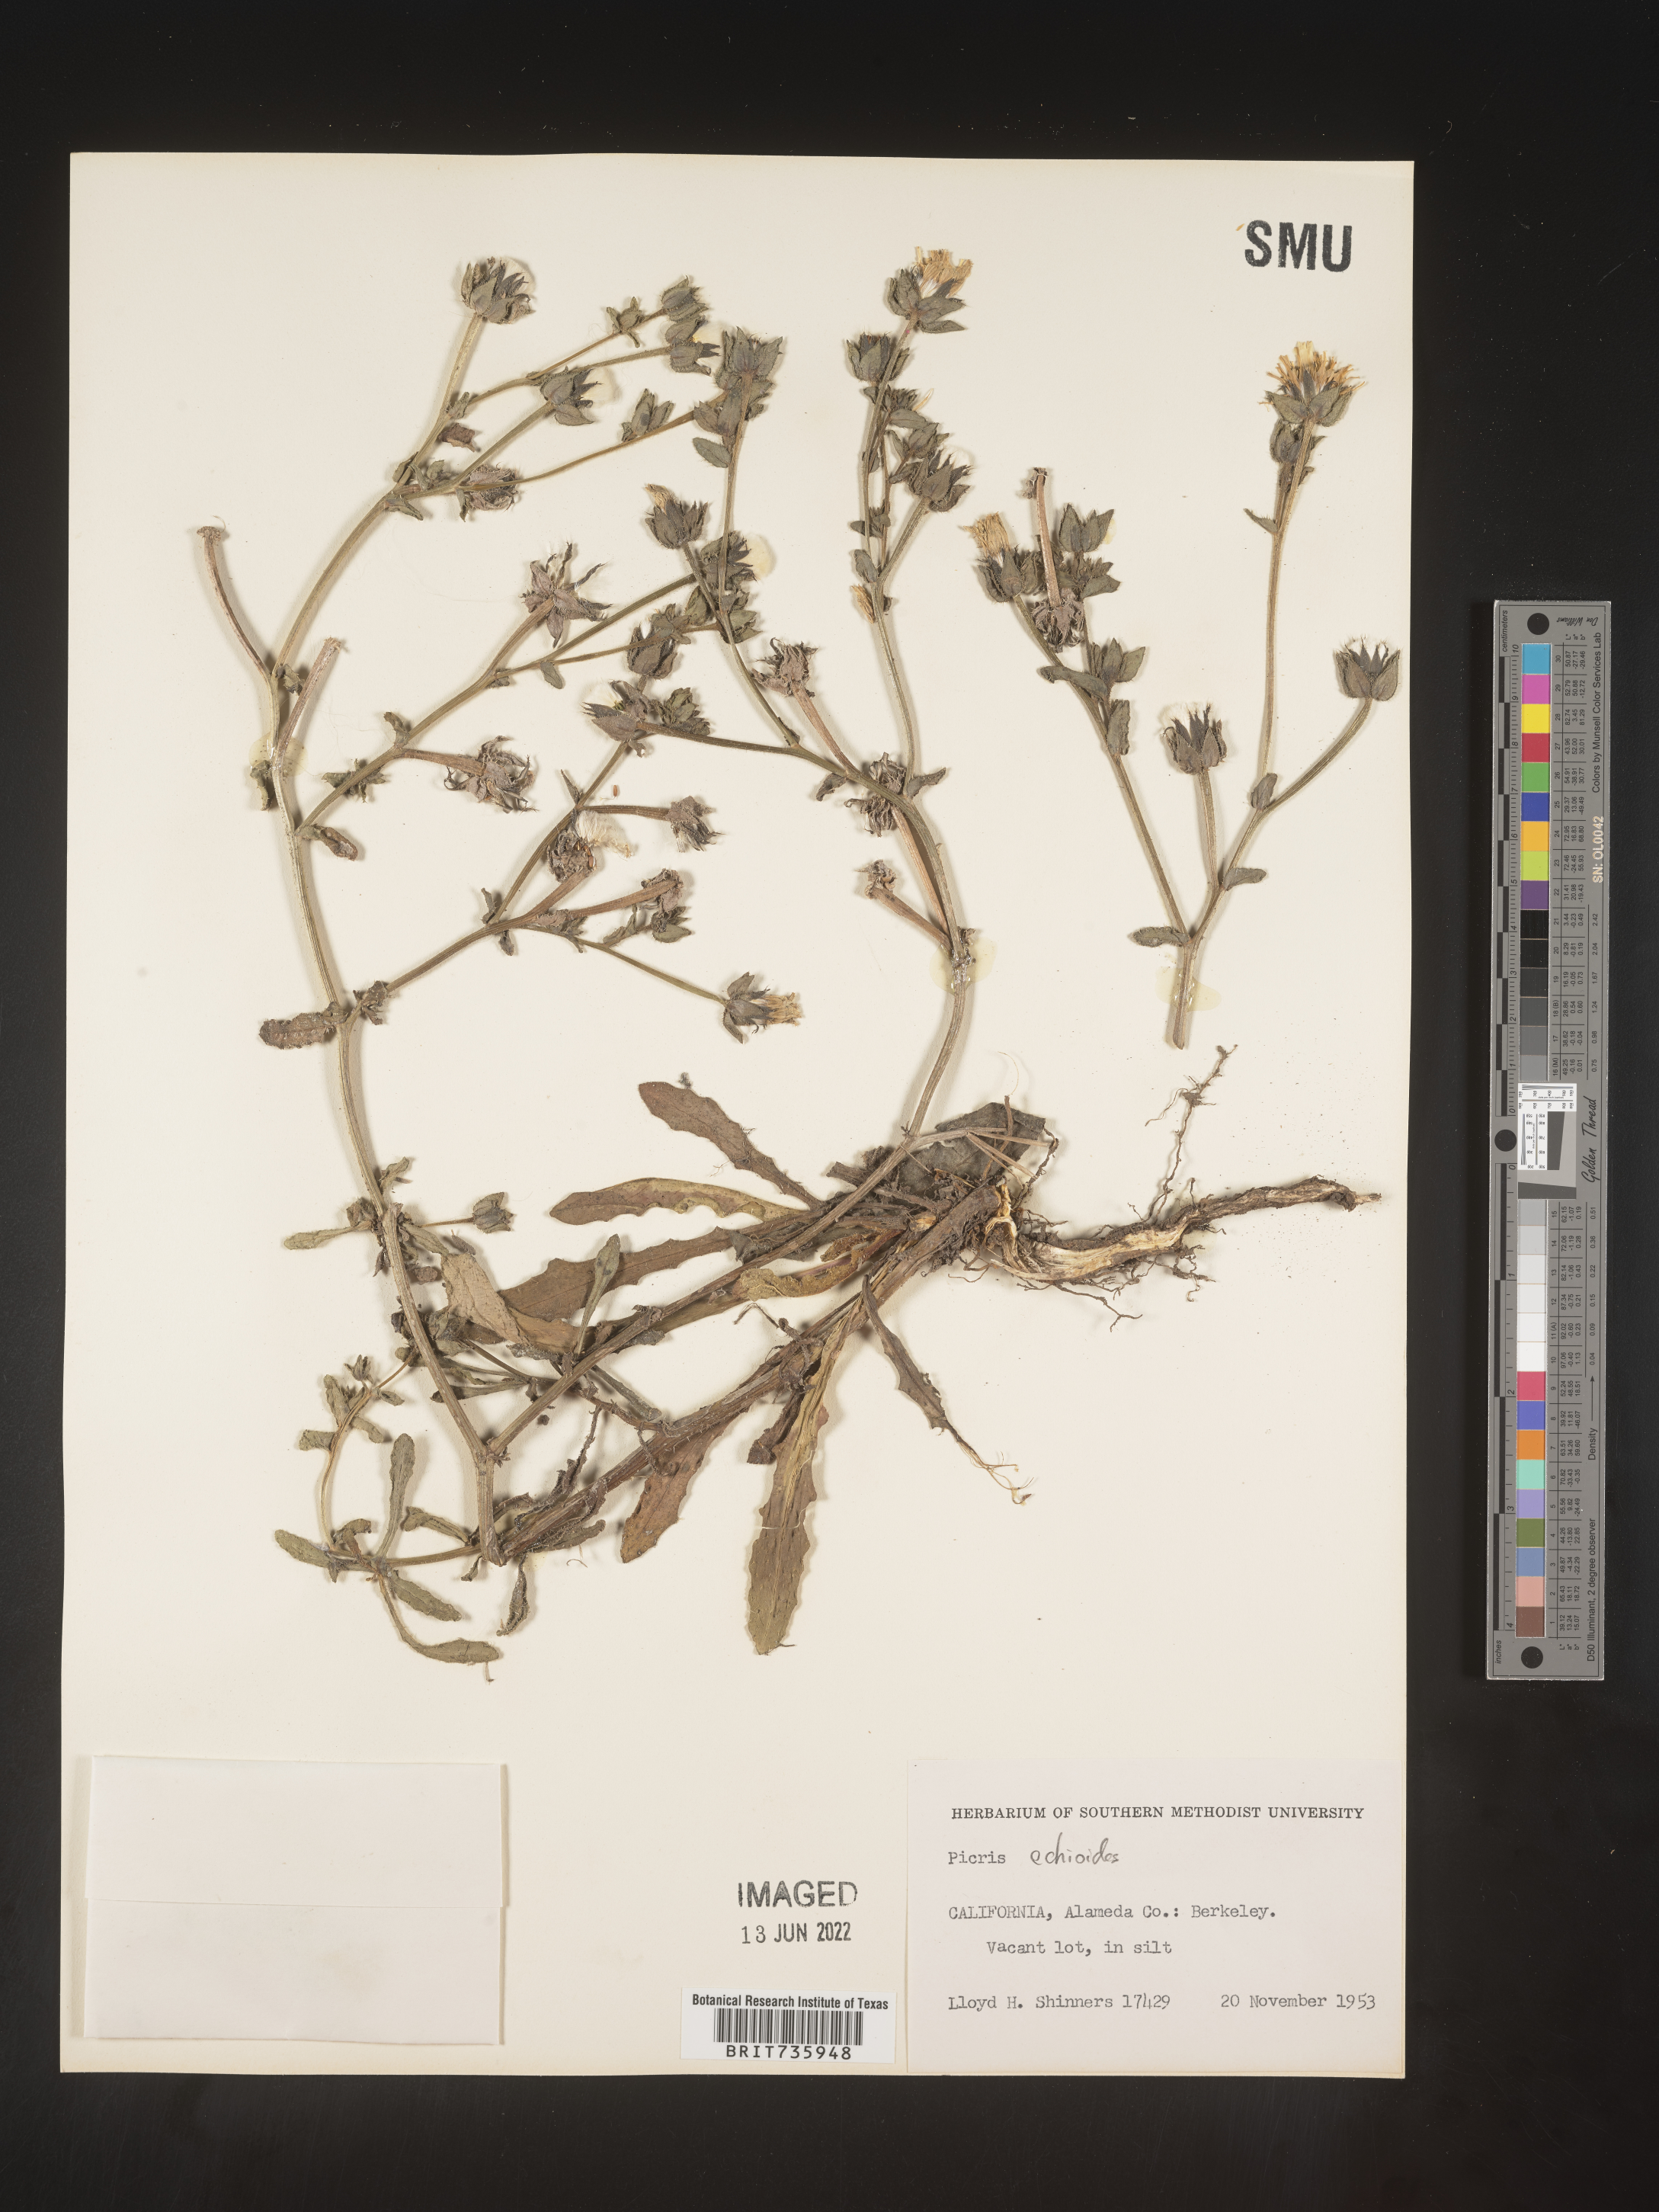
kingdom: Plantae
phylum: Tracheophyta
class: Magnoliopsida
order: Asterales
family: Asteraceae
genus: Picris
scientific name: Picris
